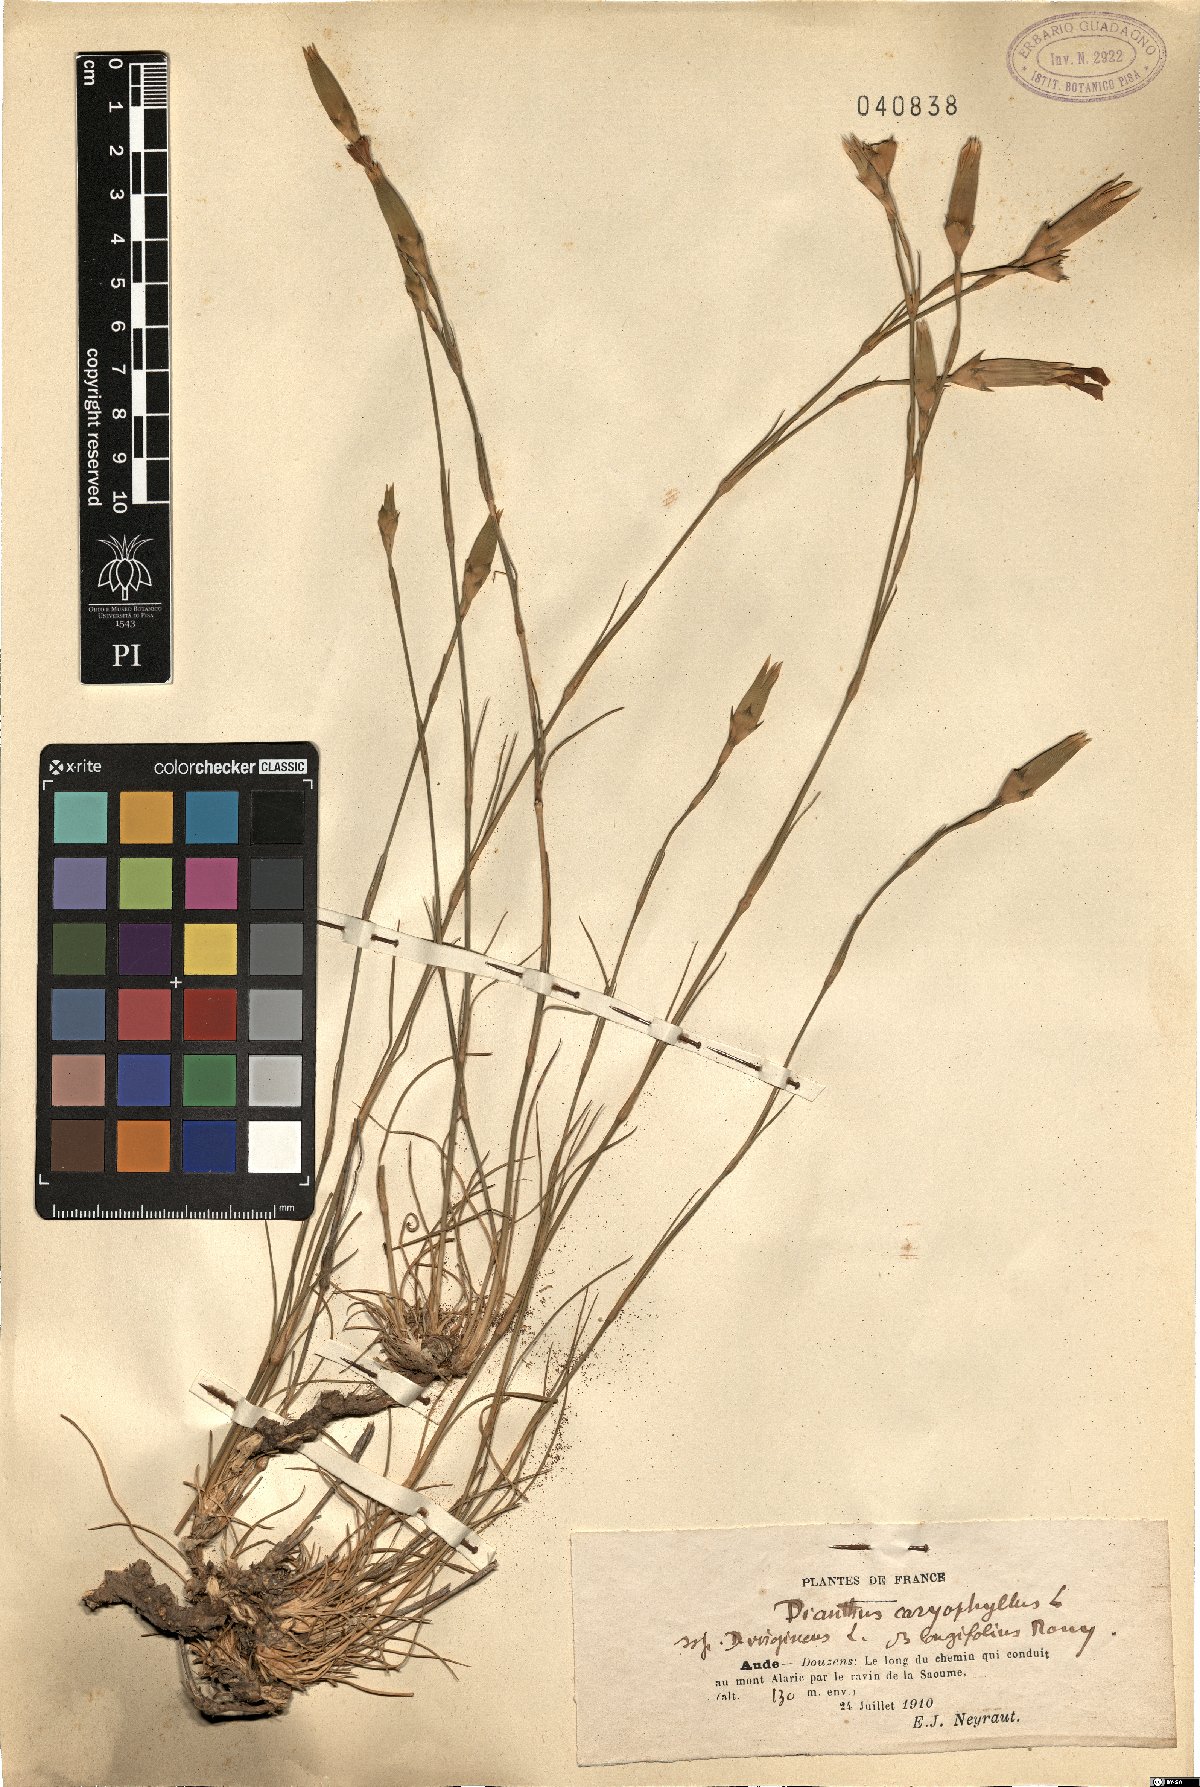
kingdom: Plantae
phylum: Tracheophyta
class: Magnoliopsida
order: Caryophyllales
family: Caryophyllaceae
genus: Dianthus
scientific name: Dianthus caryophyllus
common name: Clove pink
